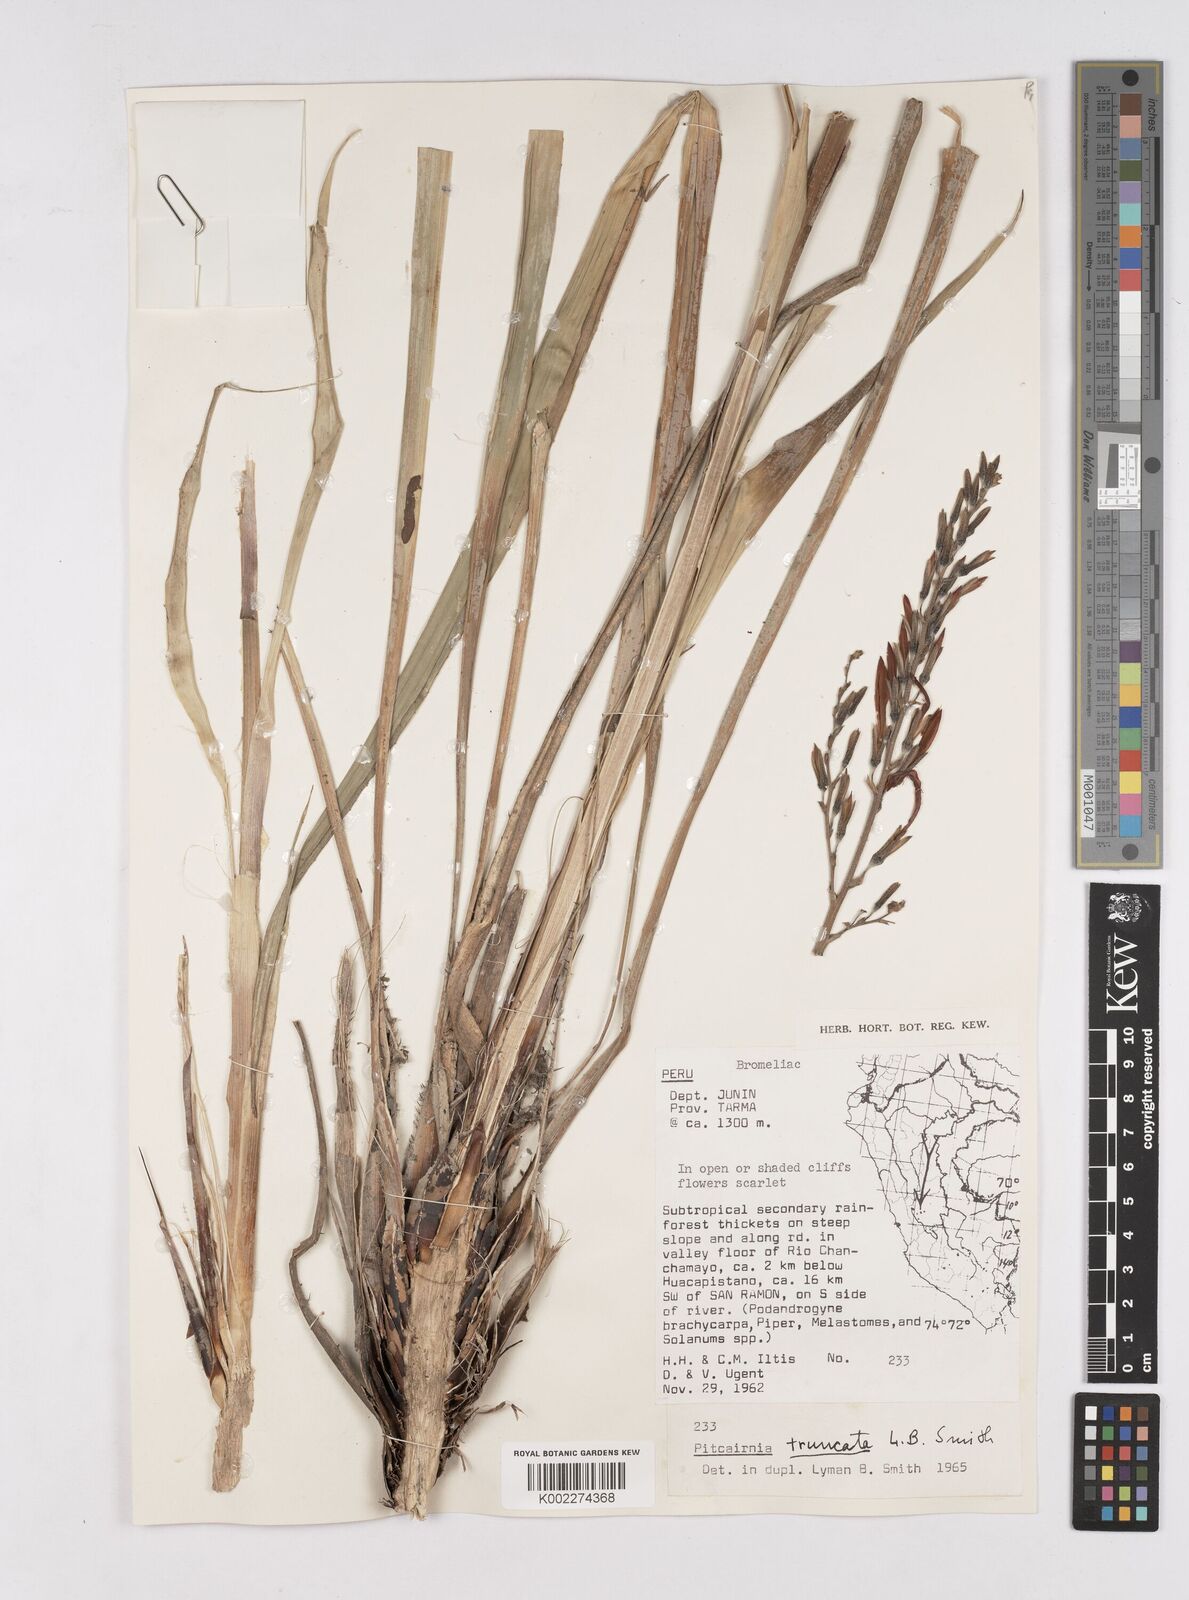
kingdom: Plantae
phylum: Tracheophyta
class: Liliopsida
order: Poales
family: Bromeliaceae
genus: Pitcairnia
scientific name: Pitcairnia truncata
